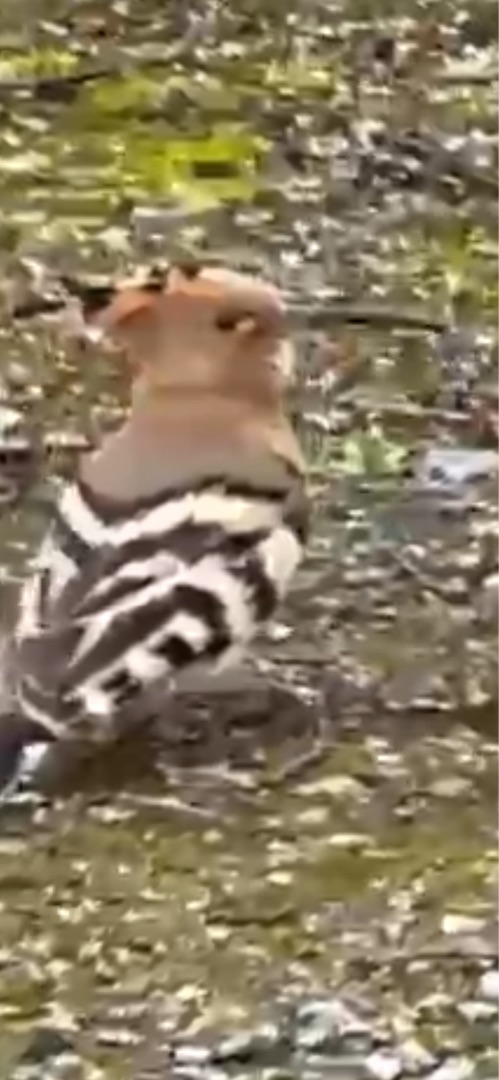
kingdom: Animalia
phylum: Chordata
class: Aves
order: Bucerotiformes
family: Upupidae
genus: Upupa
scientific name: Upupa epops
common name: Hærfugl
